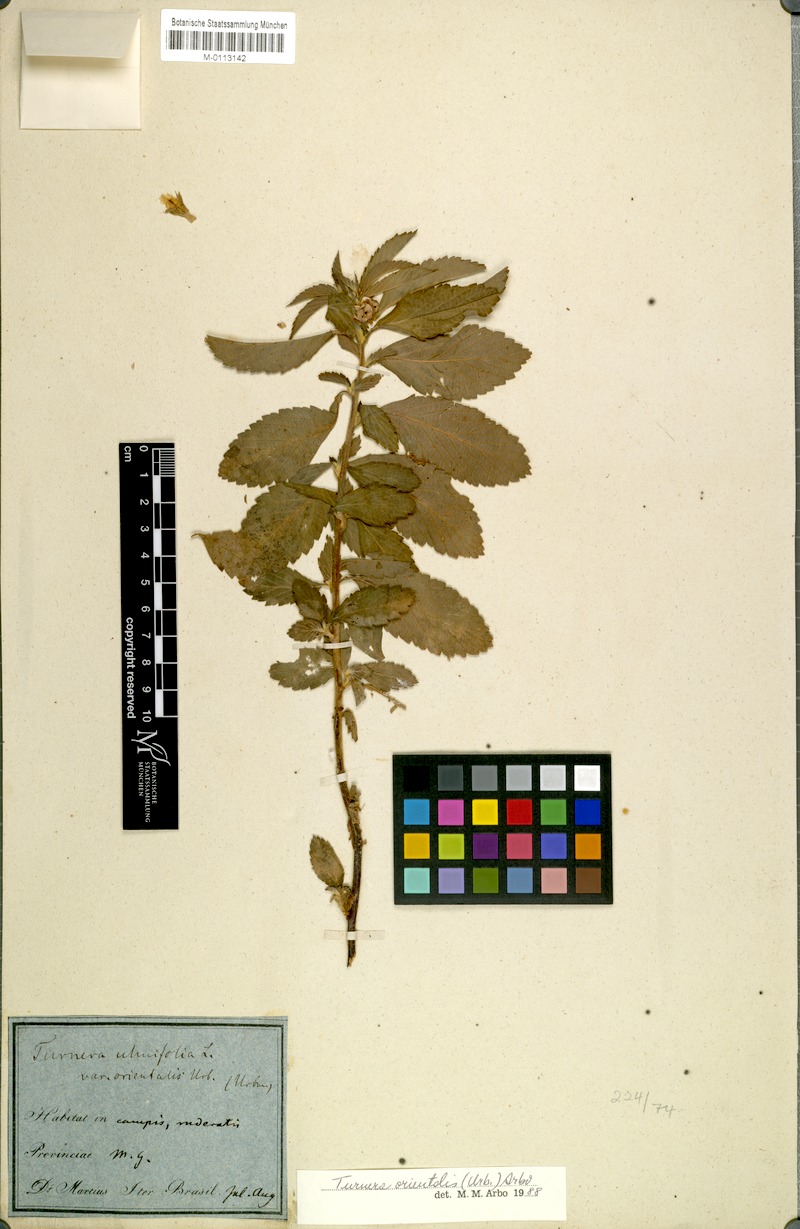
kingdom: Plantae
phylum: Tracheophyta
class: Magnoliopsida
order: Malpighiales
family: Turneraceae
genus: Turnera
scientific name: Turnera orientalis
